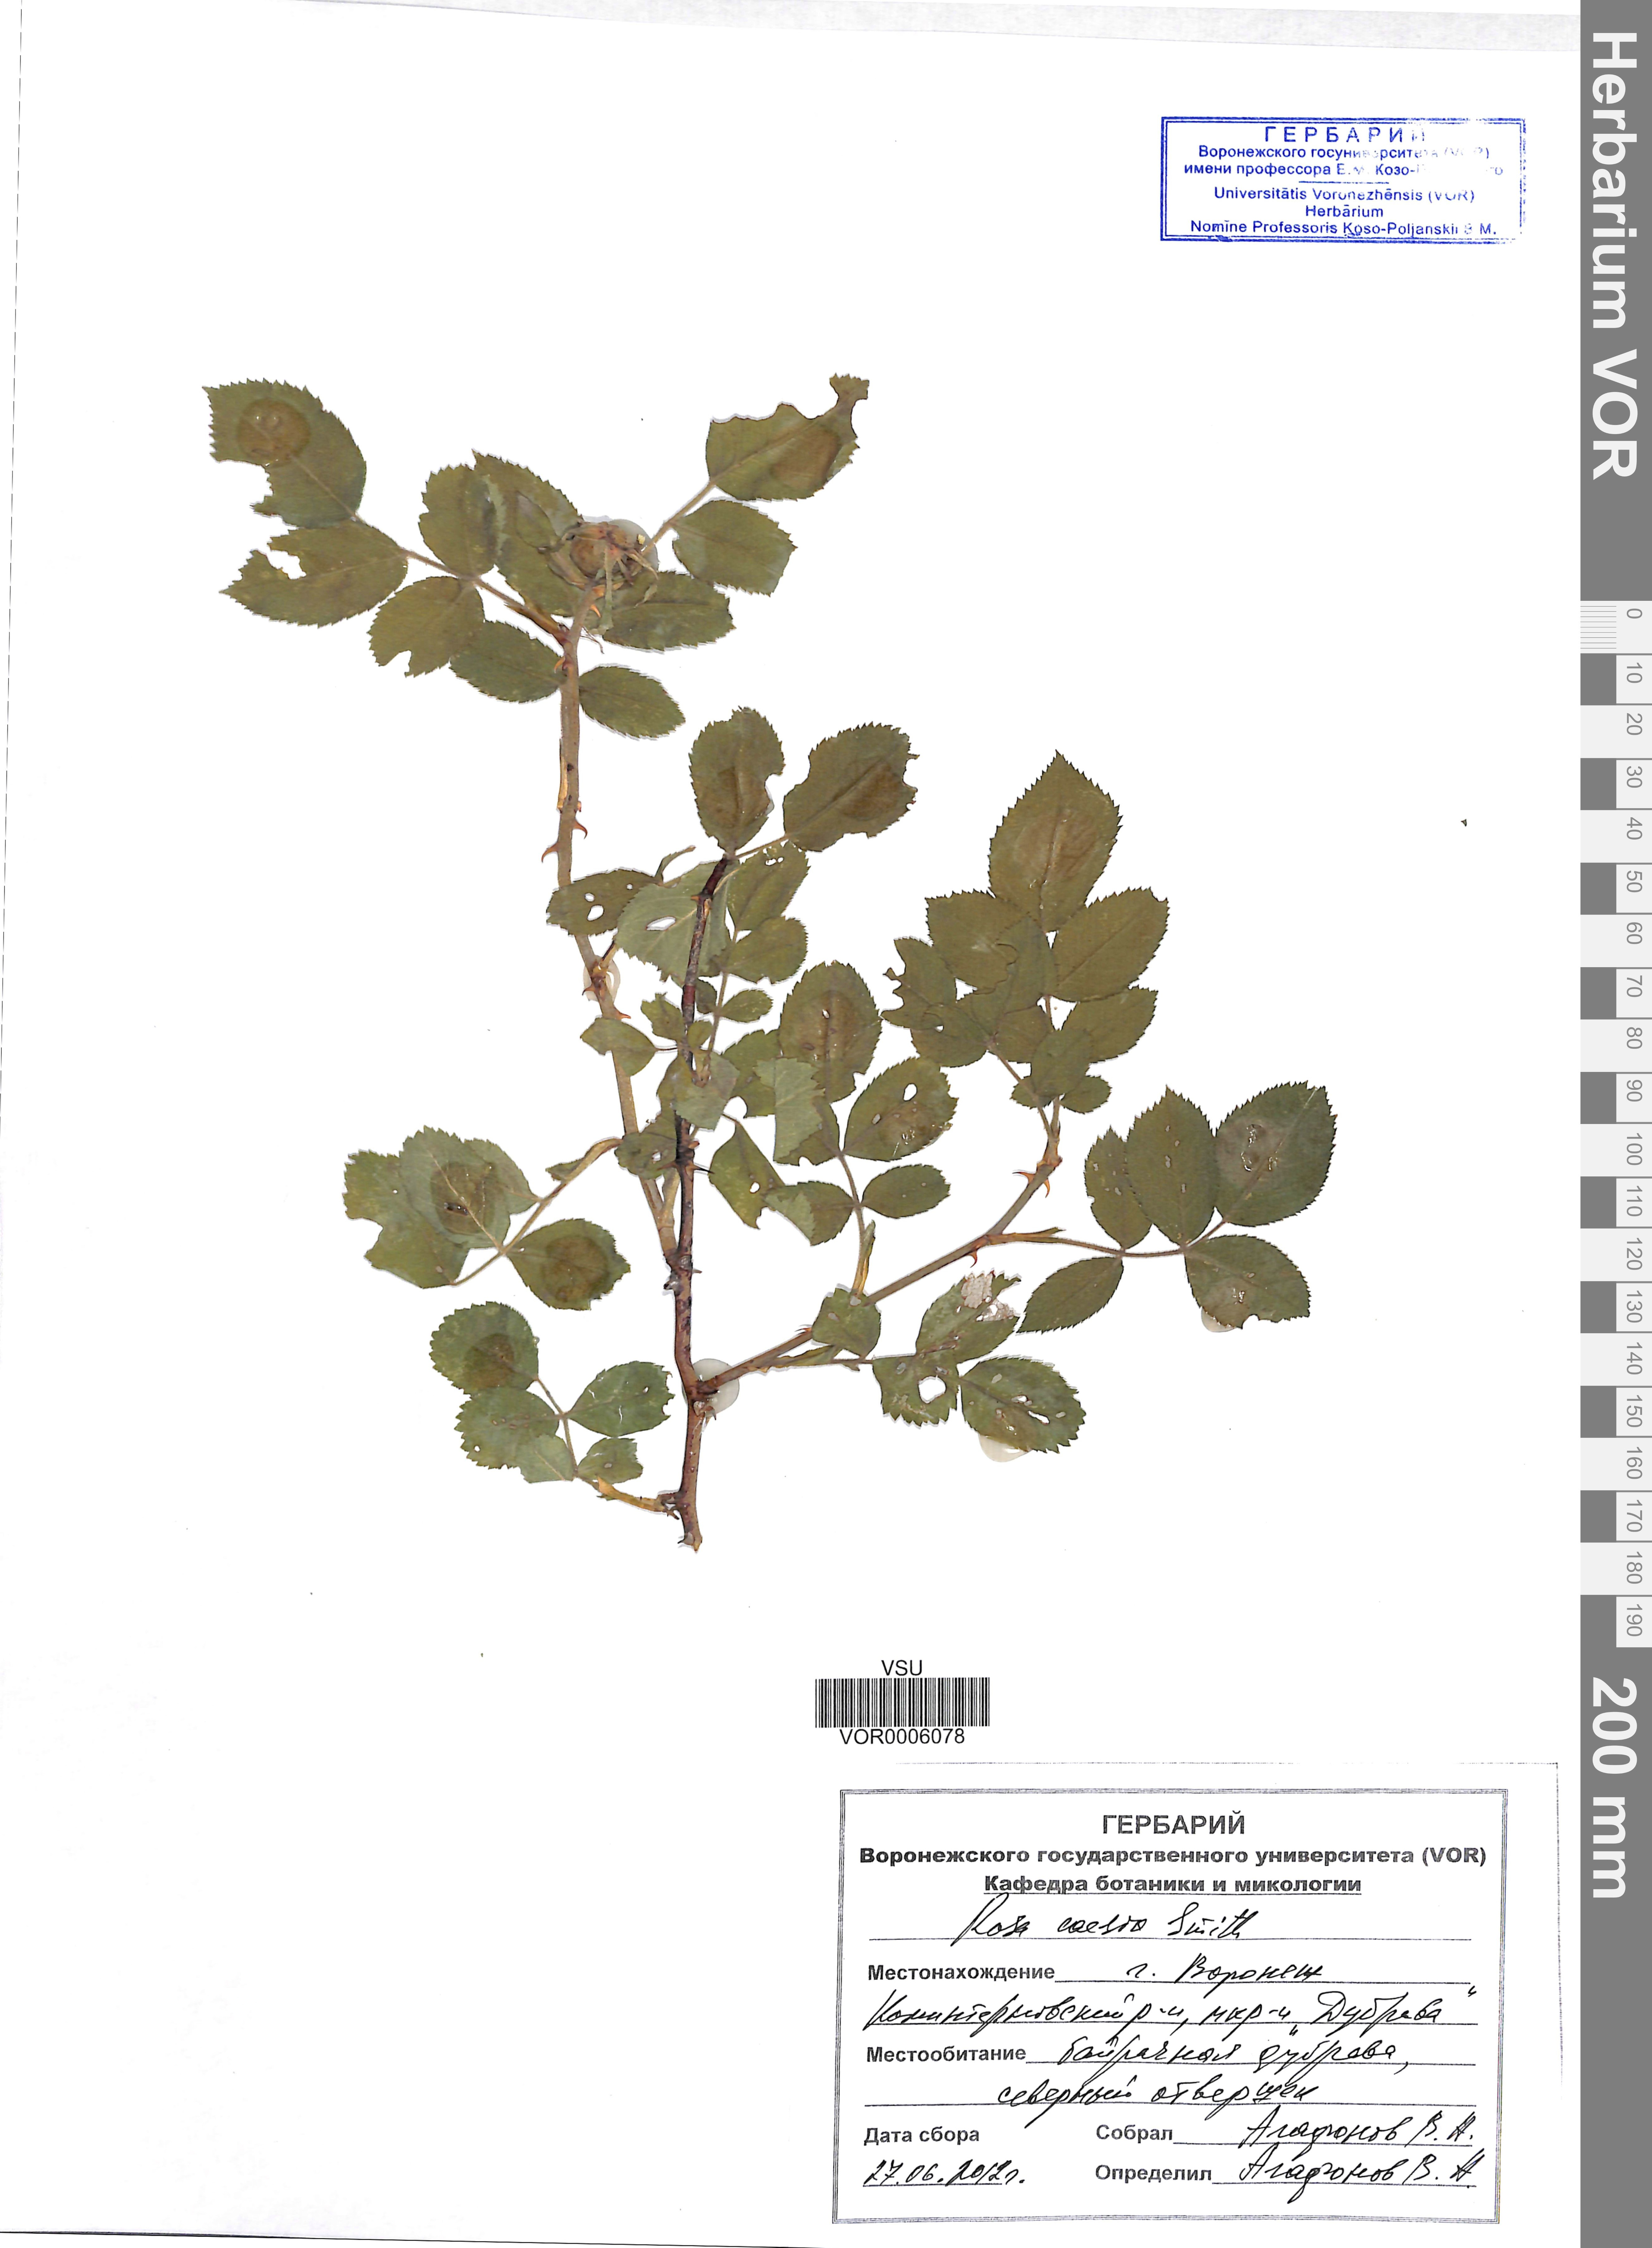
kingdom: Plantae
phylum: Tracheophyta
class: Magnoliopsida
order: Rosales
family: Rosaceae
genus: Rosa
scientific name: Rosa caesia
